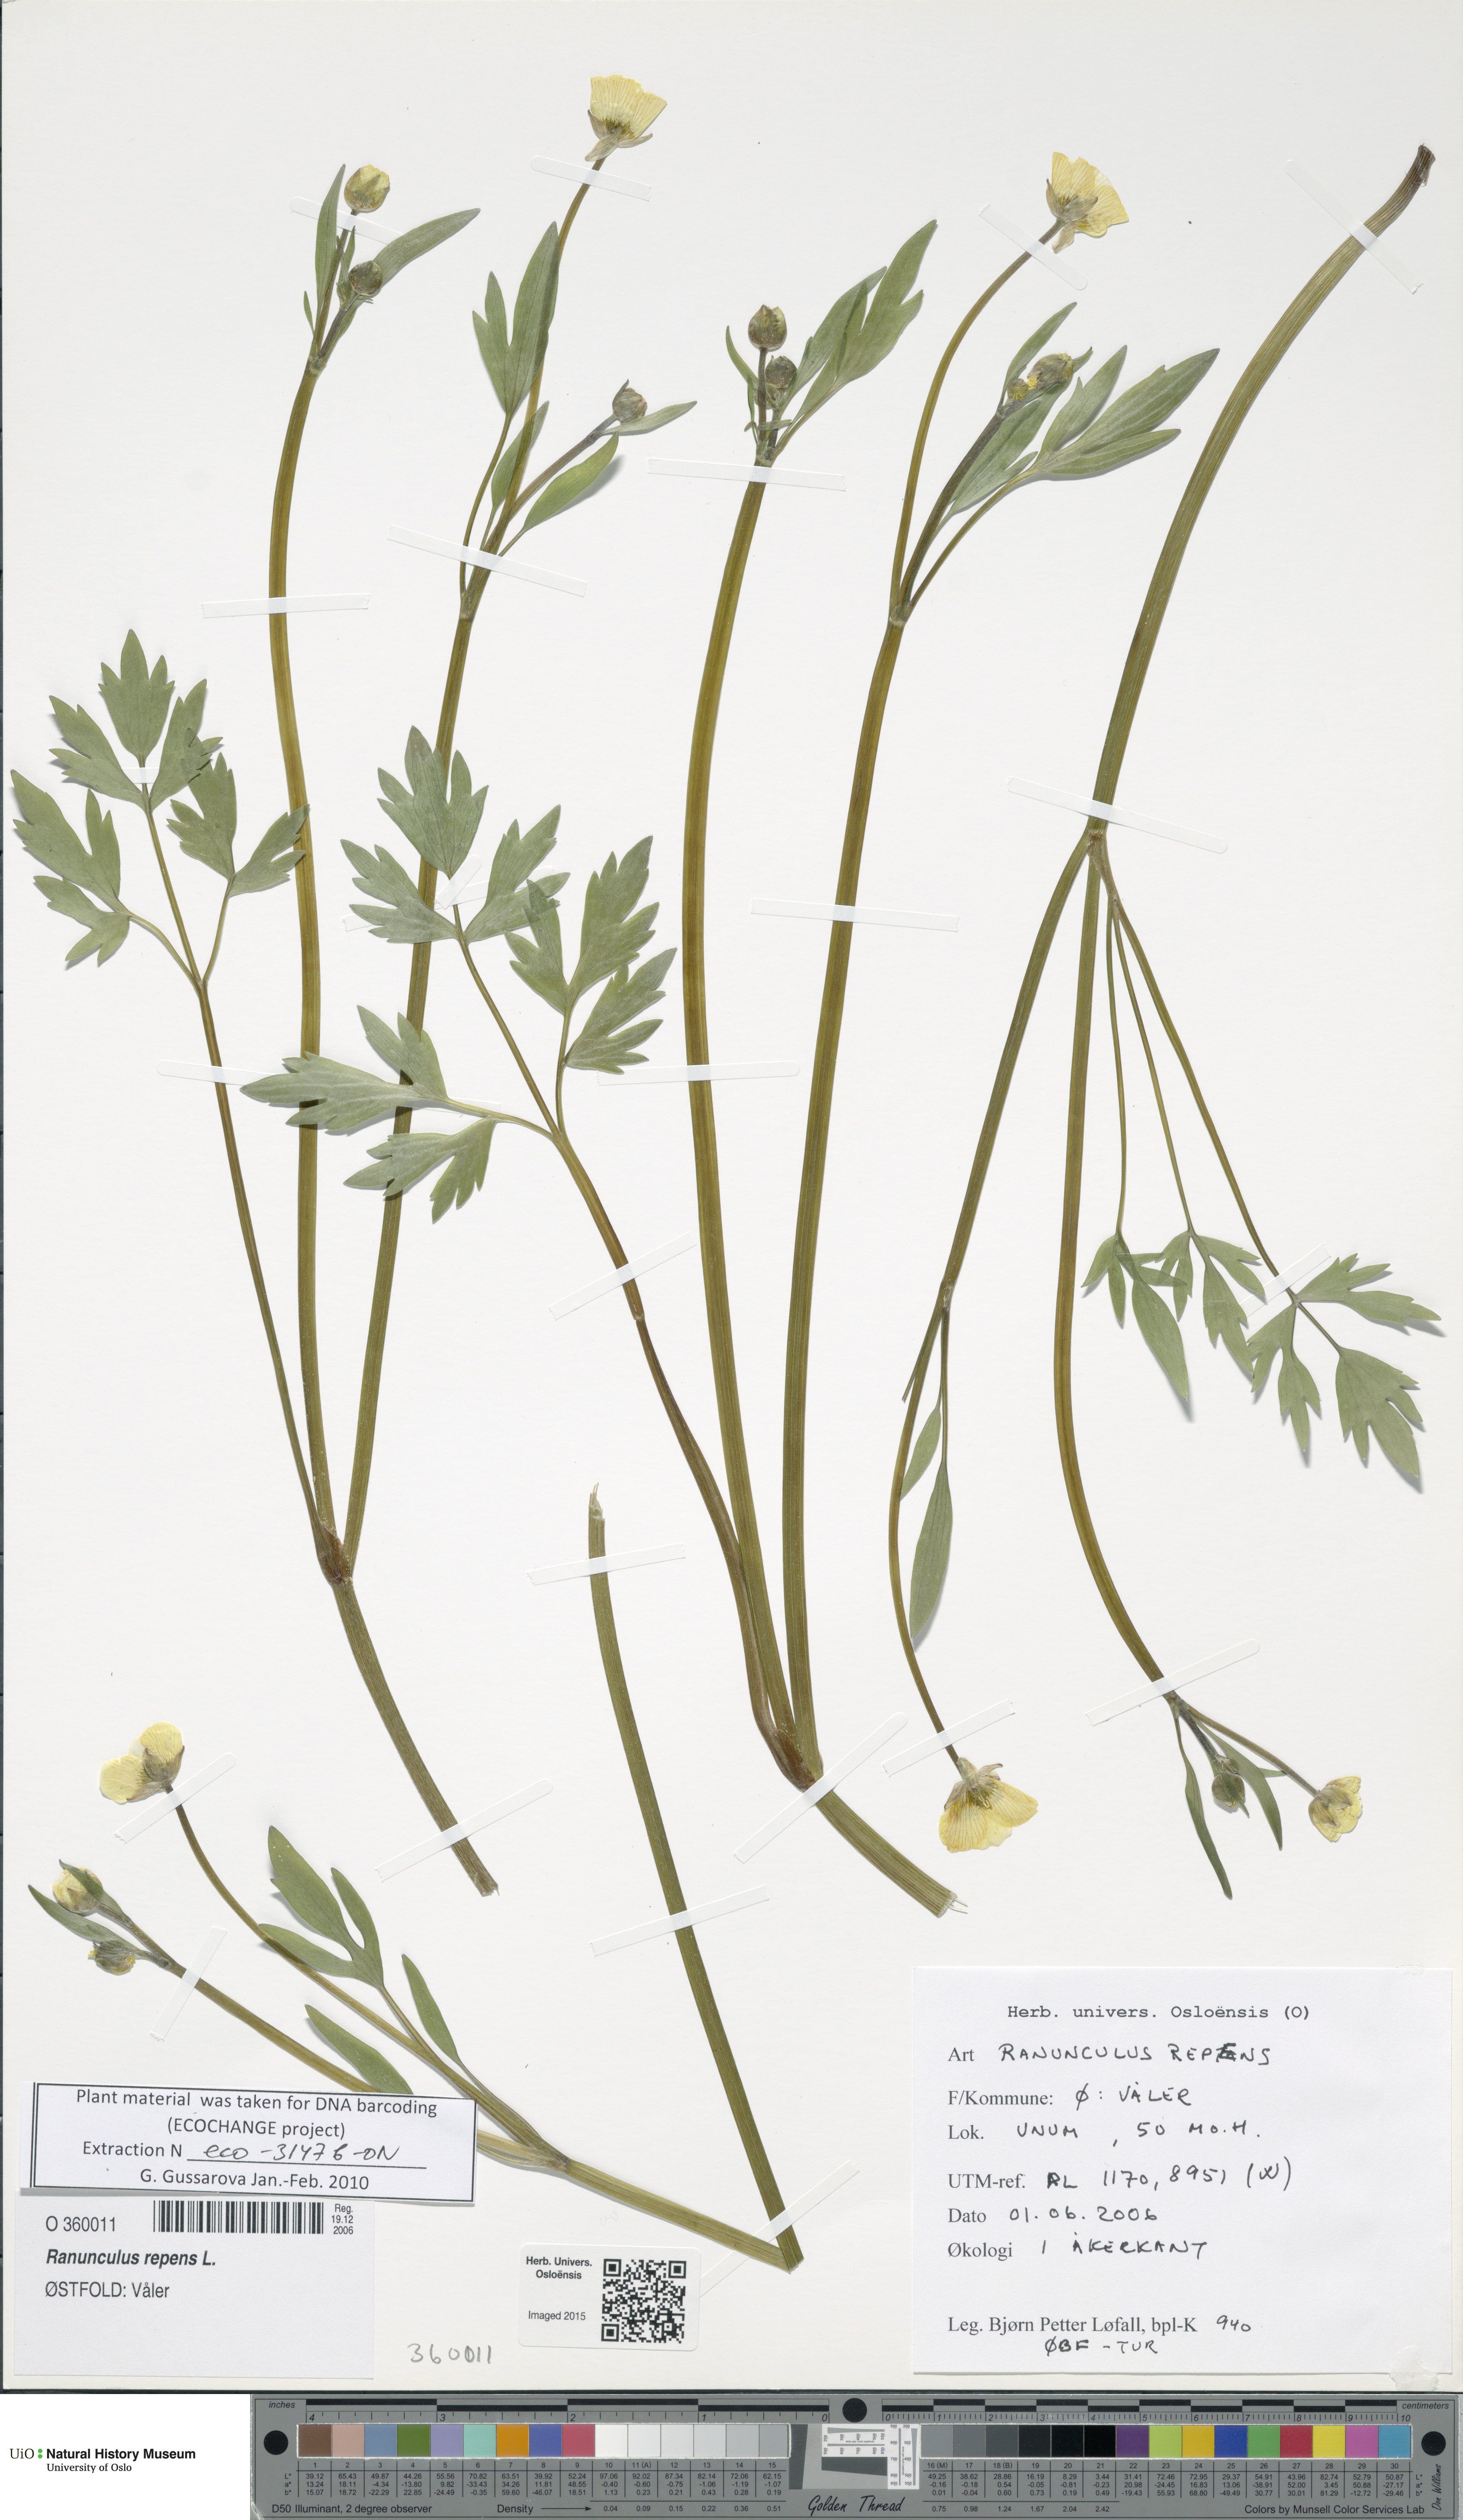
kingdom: Plantae
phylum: Tracheophyta
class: Magnoliopsida
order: Ranunculales
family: Ranunculaceae
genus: Ranunculus
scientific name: Ranunculus repens
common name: Creeping buttercup
